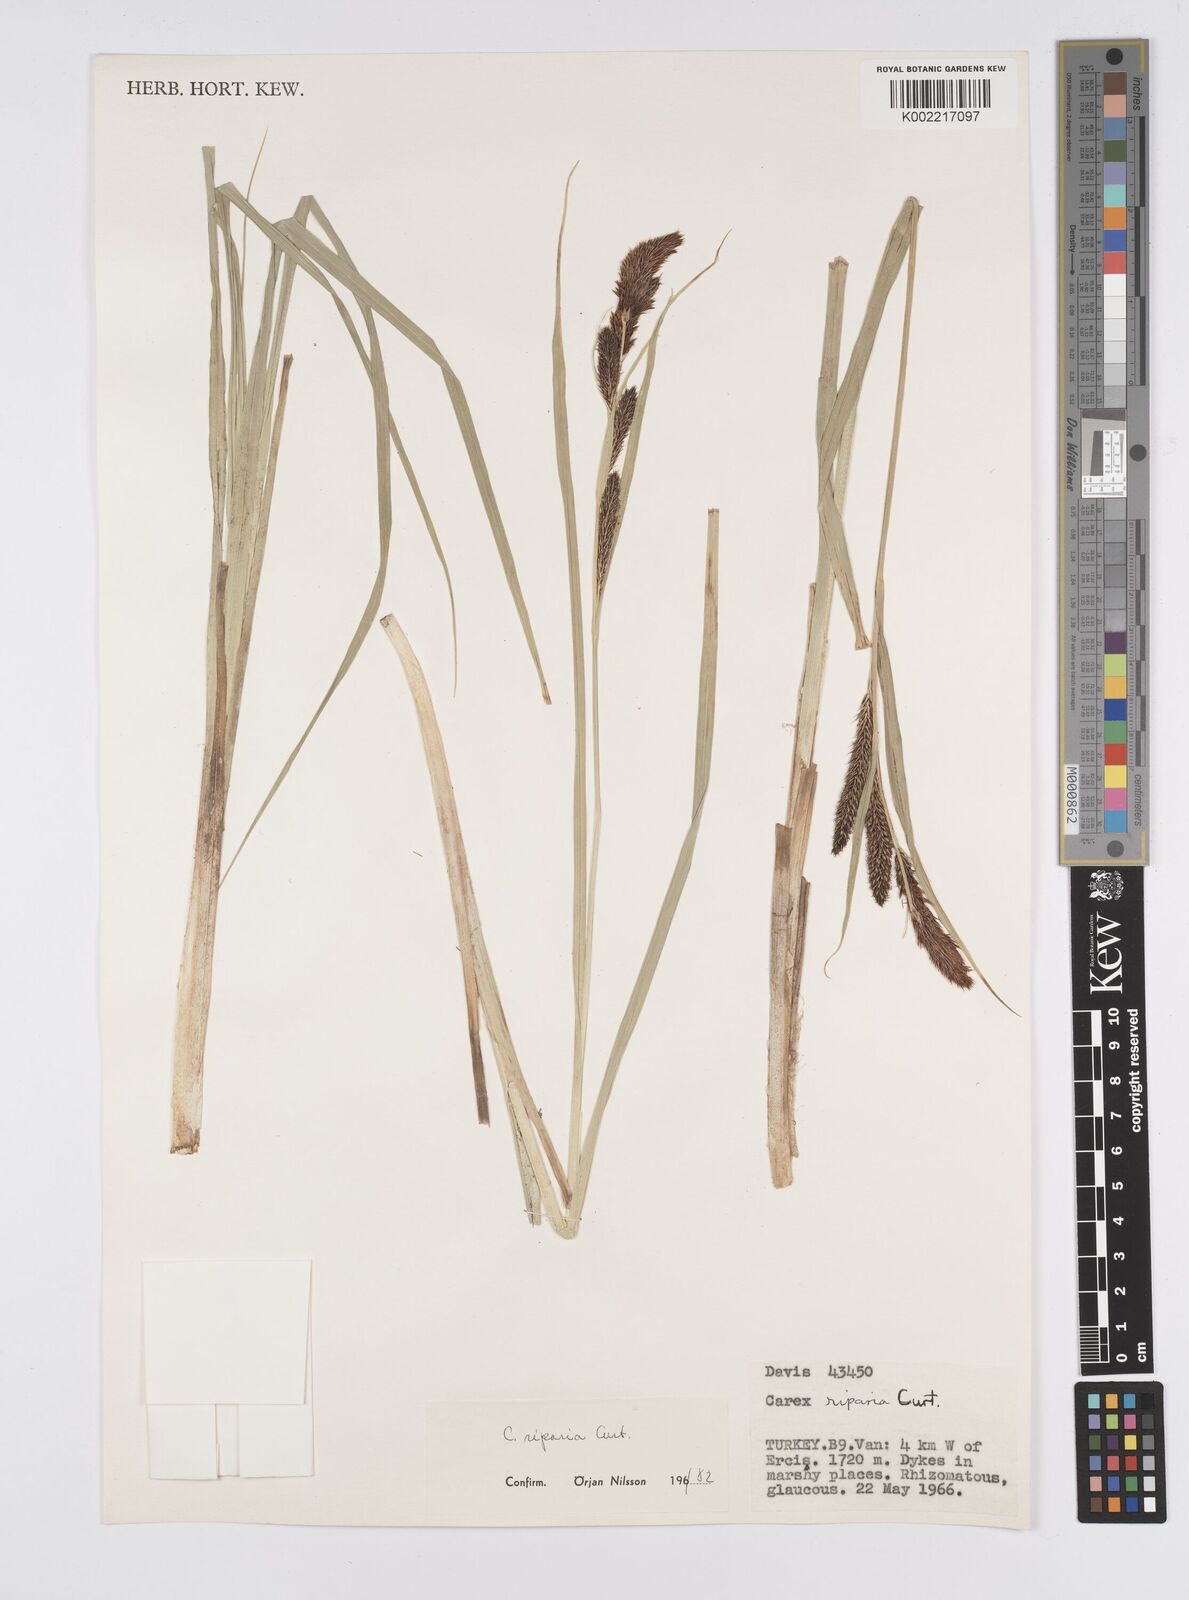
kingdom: Plantae
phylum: Tracheophyta
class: Liliopsida
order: Poales
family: Cyperaceae
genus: Carex
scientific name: Carex riparia
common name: Greater pond-sedge
